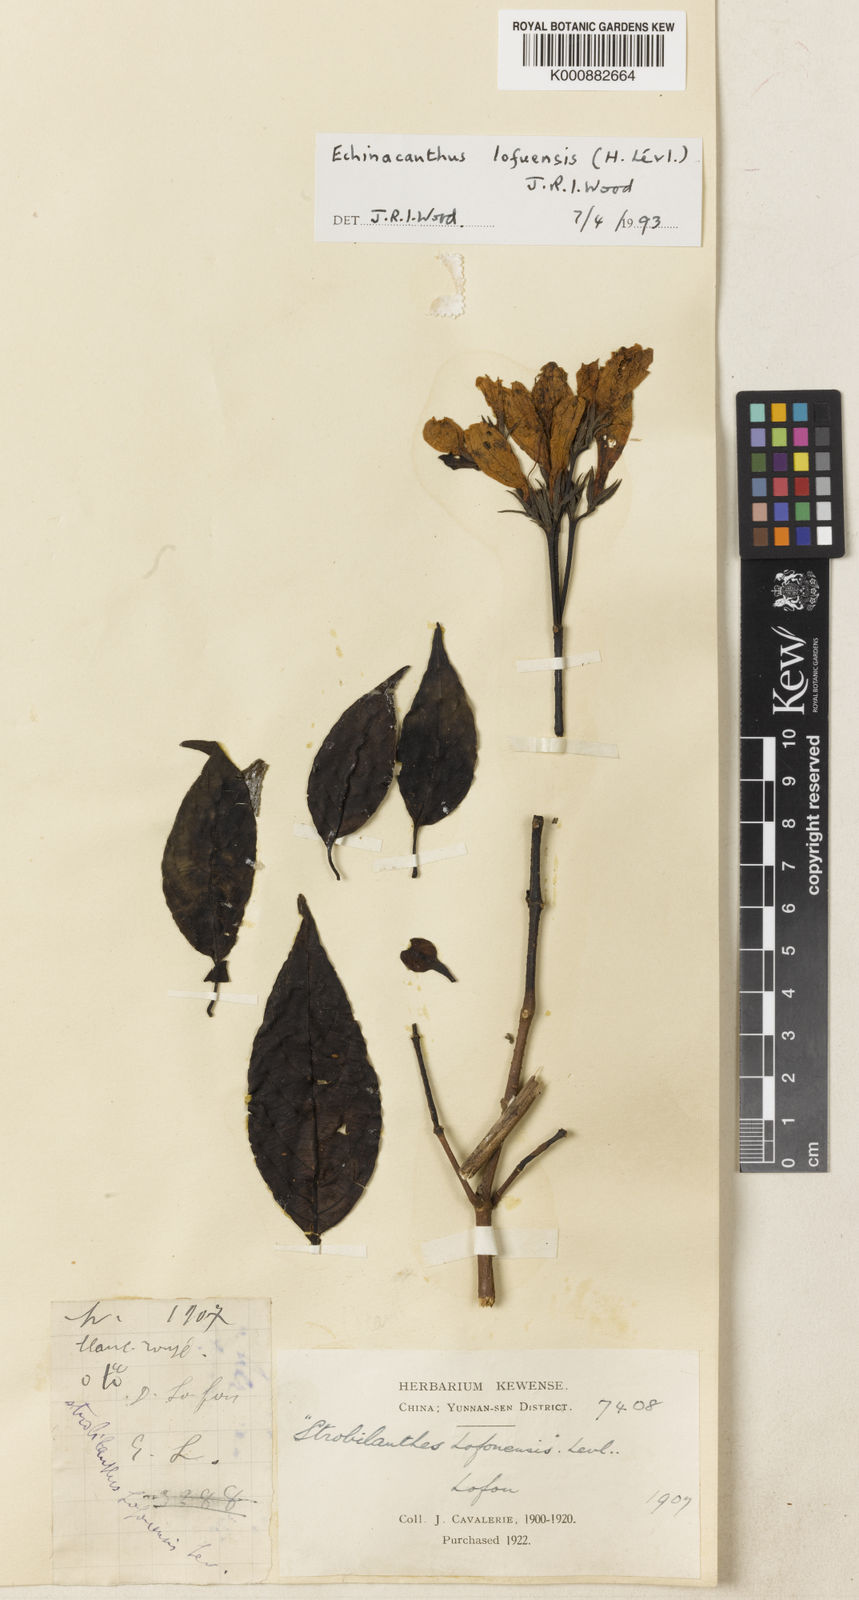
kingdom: Plantae
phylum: Tracheophyta
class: Magnoliopsida
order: Lamiales
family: Acanthaceae
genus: Echinacanthus
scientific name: Echinacanthus
